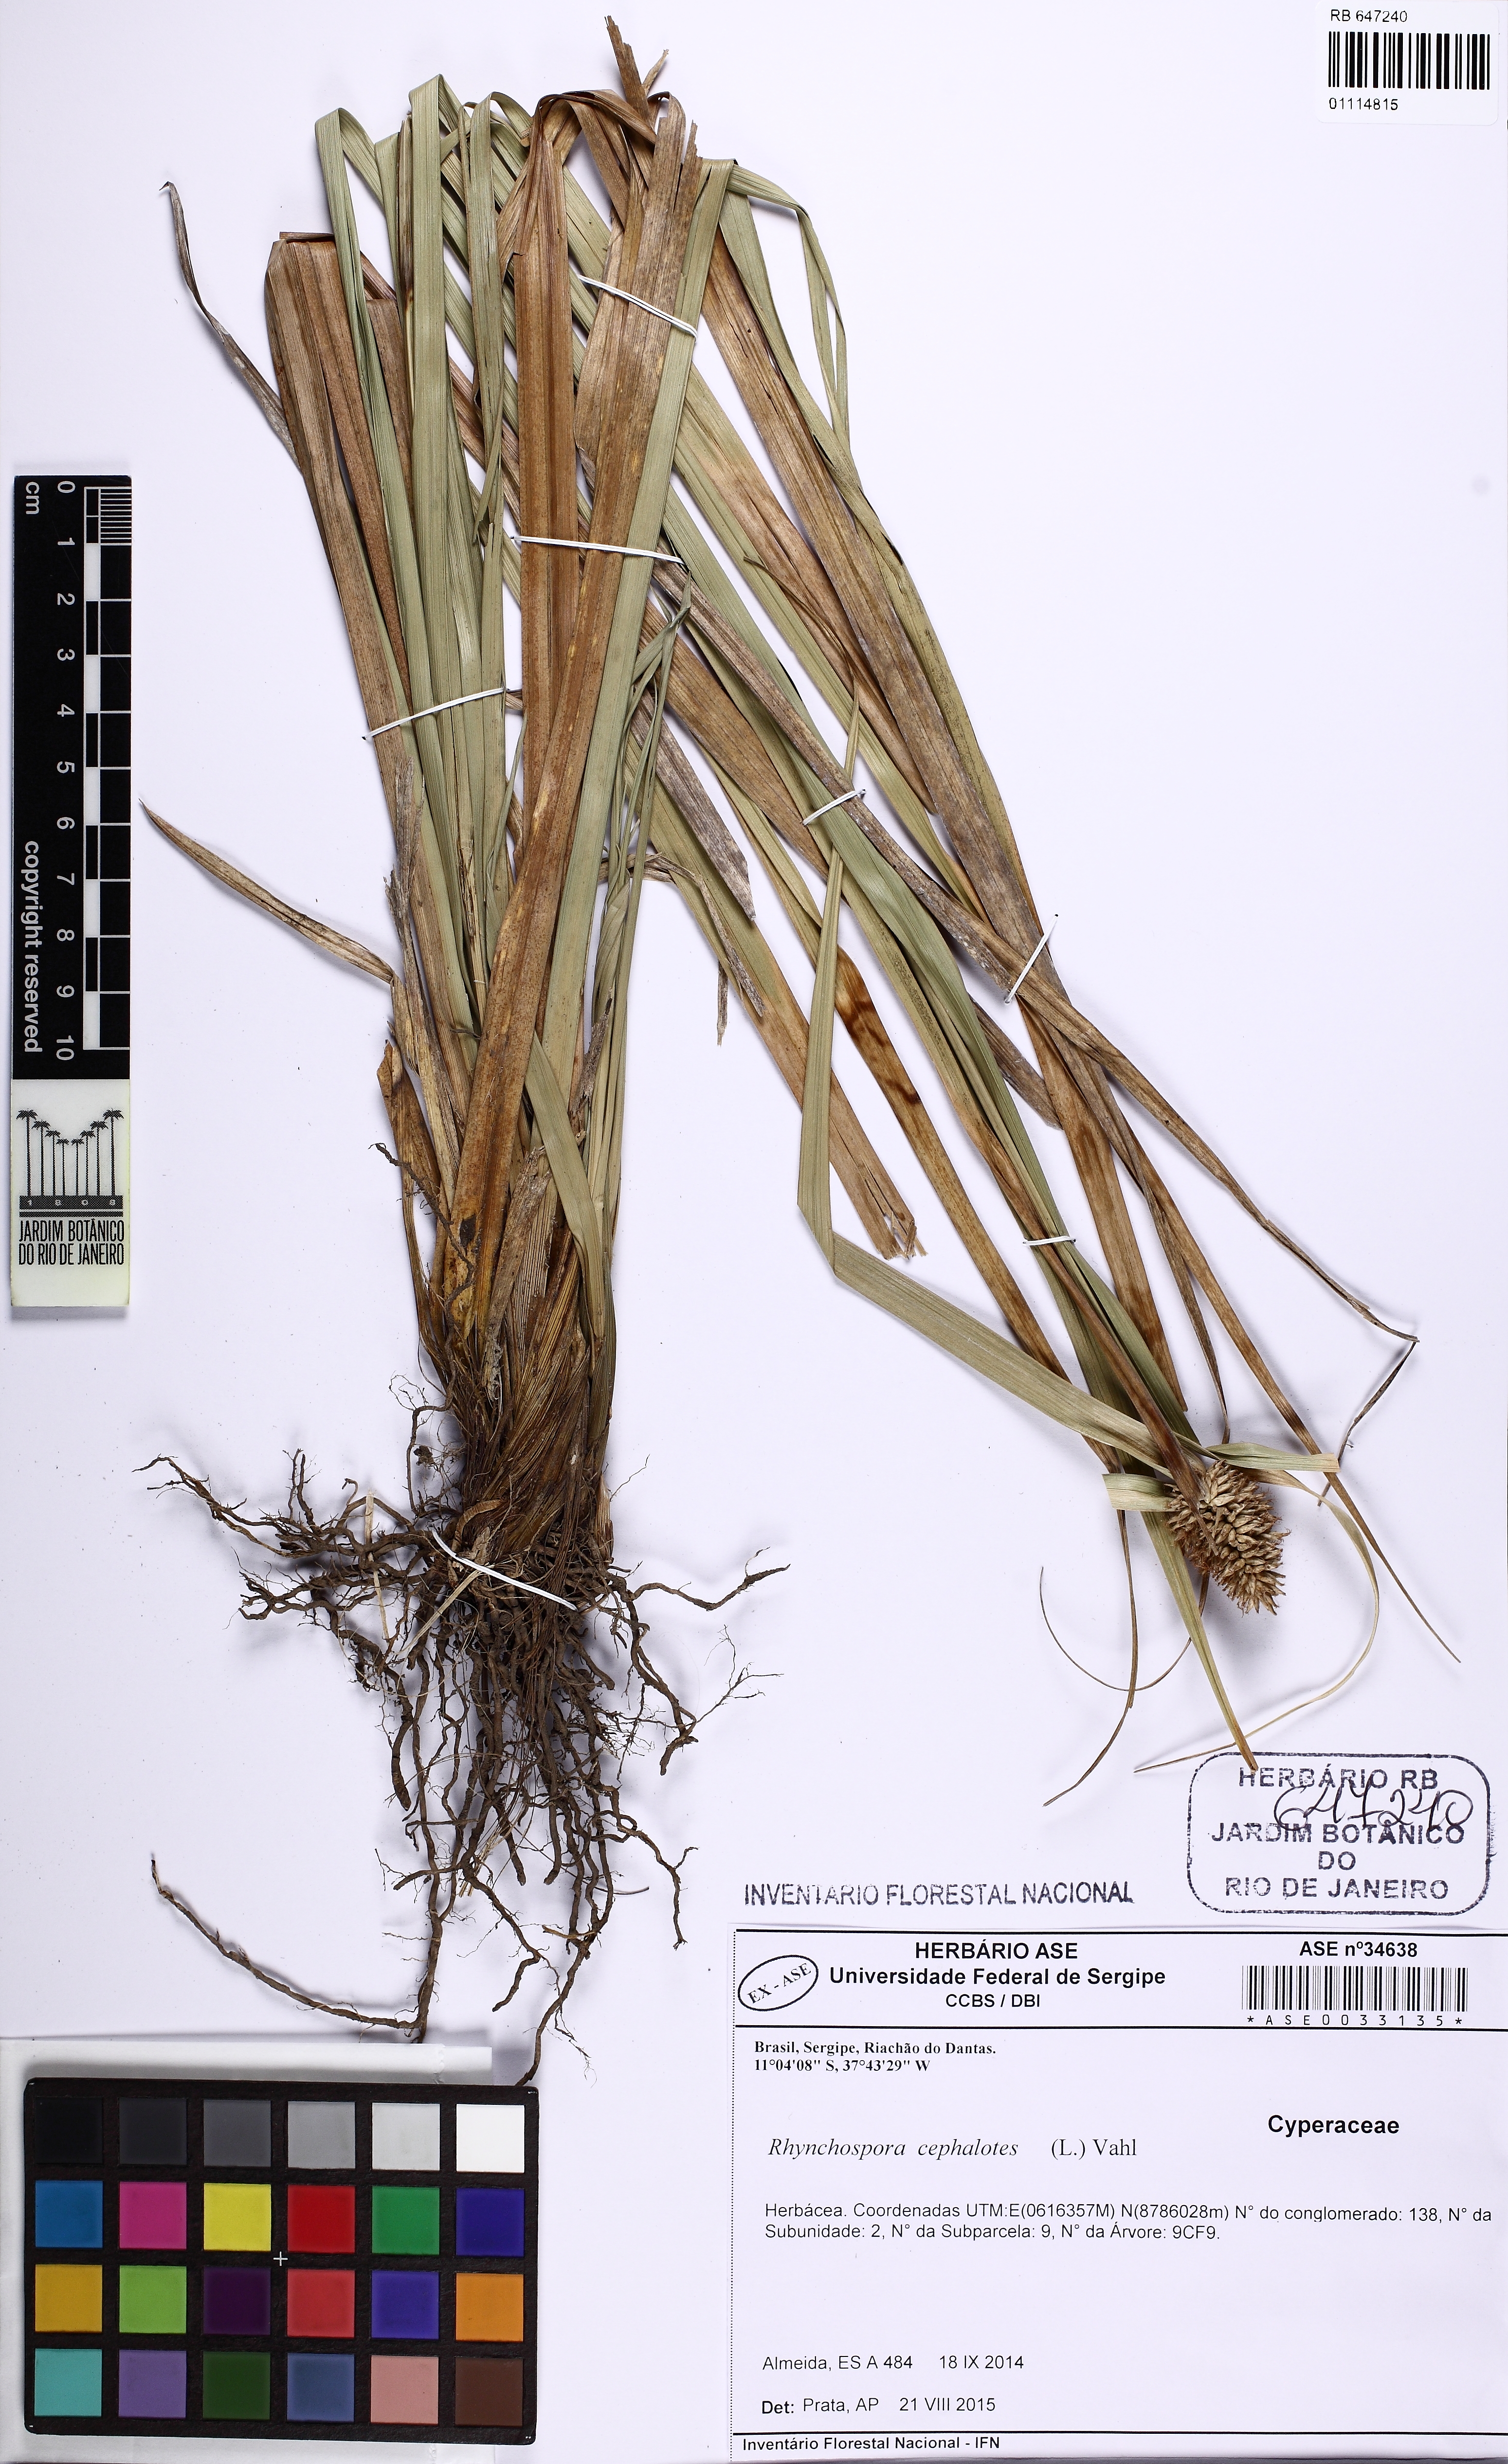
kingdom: Plantae
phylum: Tracheophyta
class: Liliopsida
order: Poales
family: Cyperaceae
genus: Rhynchospora
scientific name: Rhynchospora cephalotes
